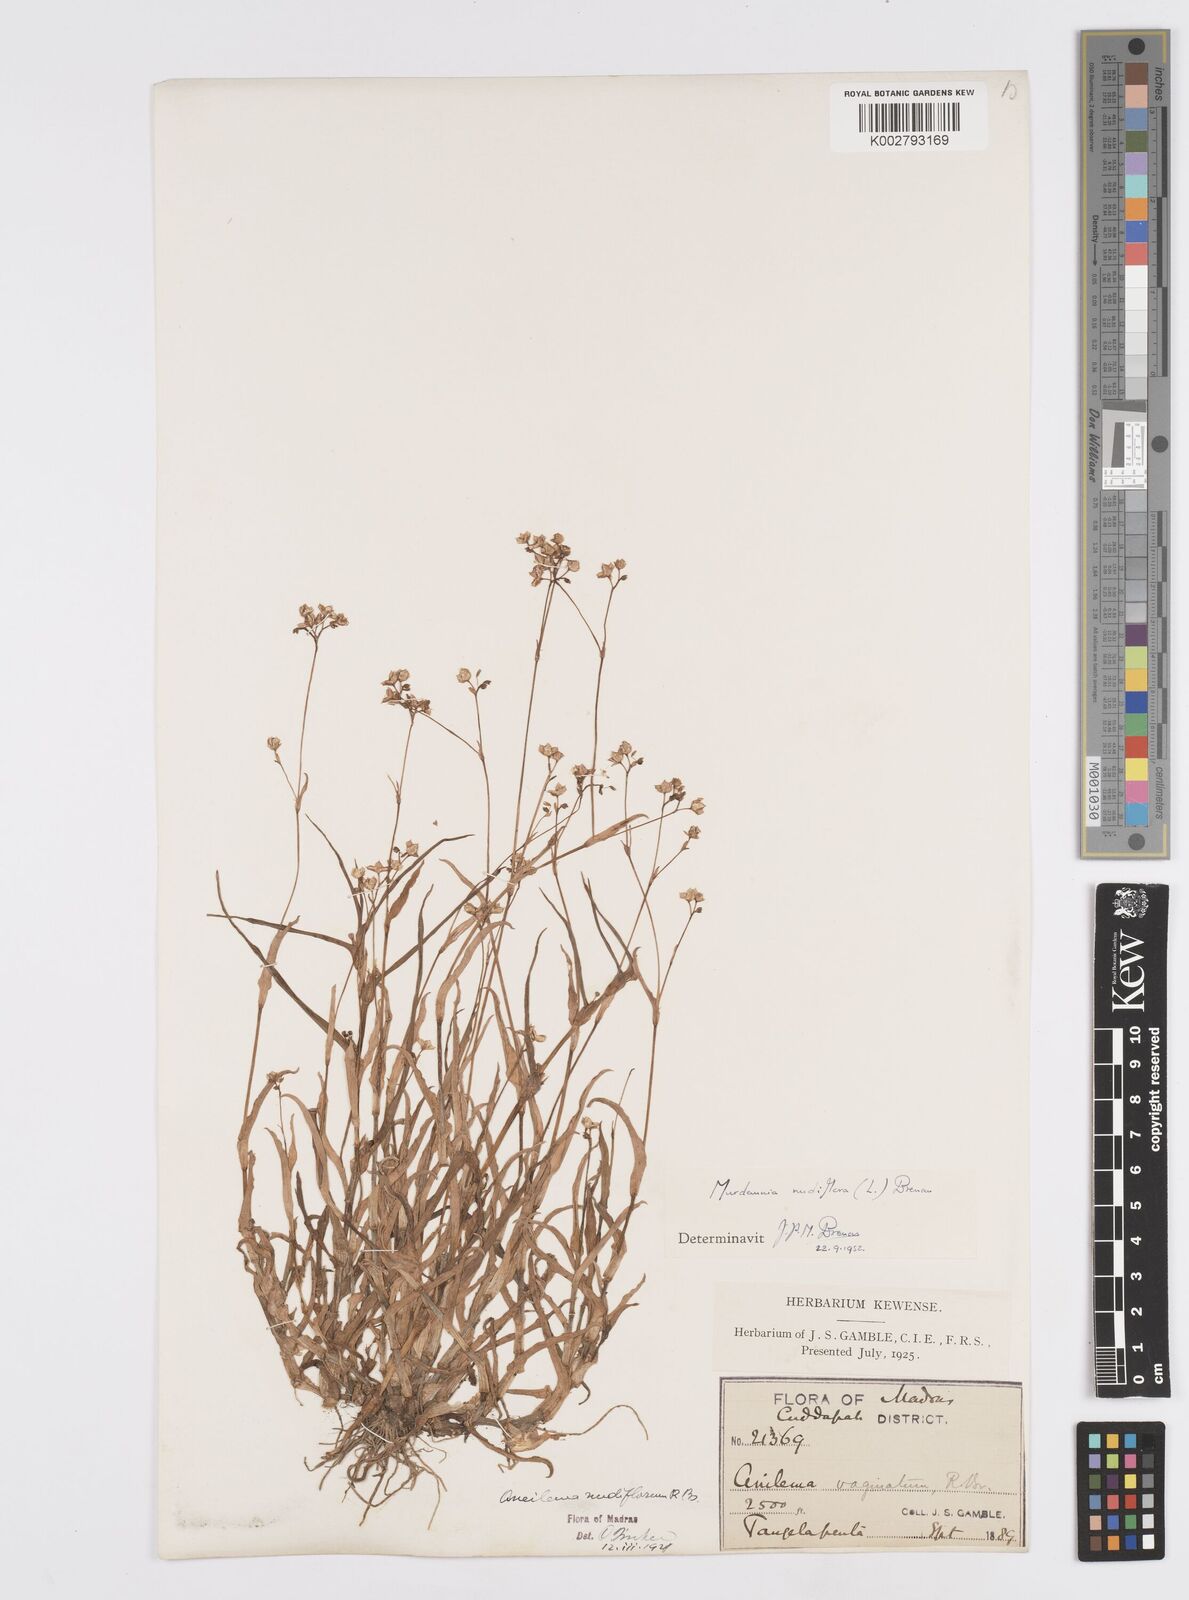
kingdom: Plantae
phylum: Tracheophyta
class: Liliopsida
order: Commelinales
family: Commelinaceae
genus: Murdannia
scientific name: Murdannia nudiflora
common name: Nakedstem dewflower
